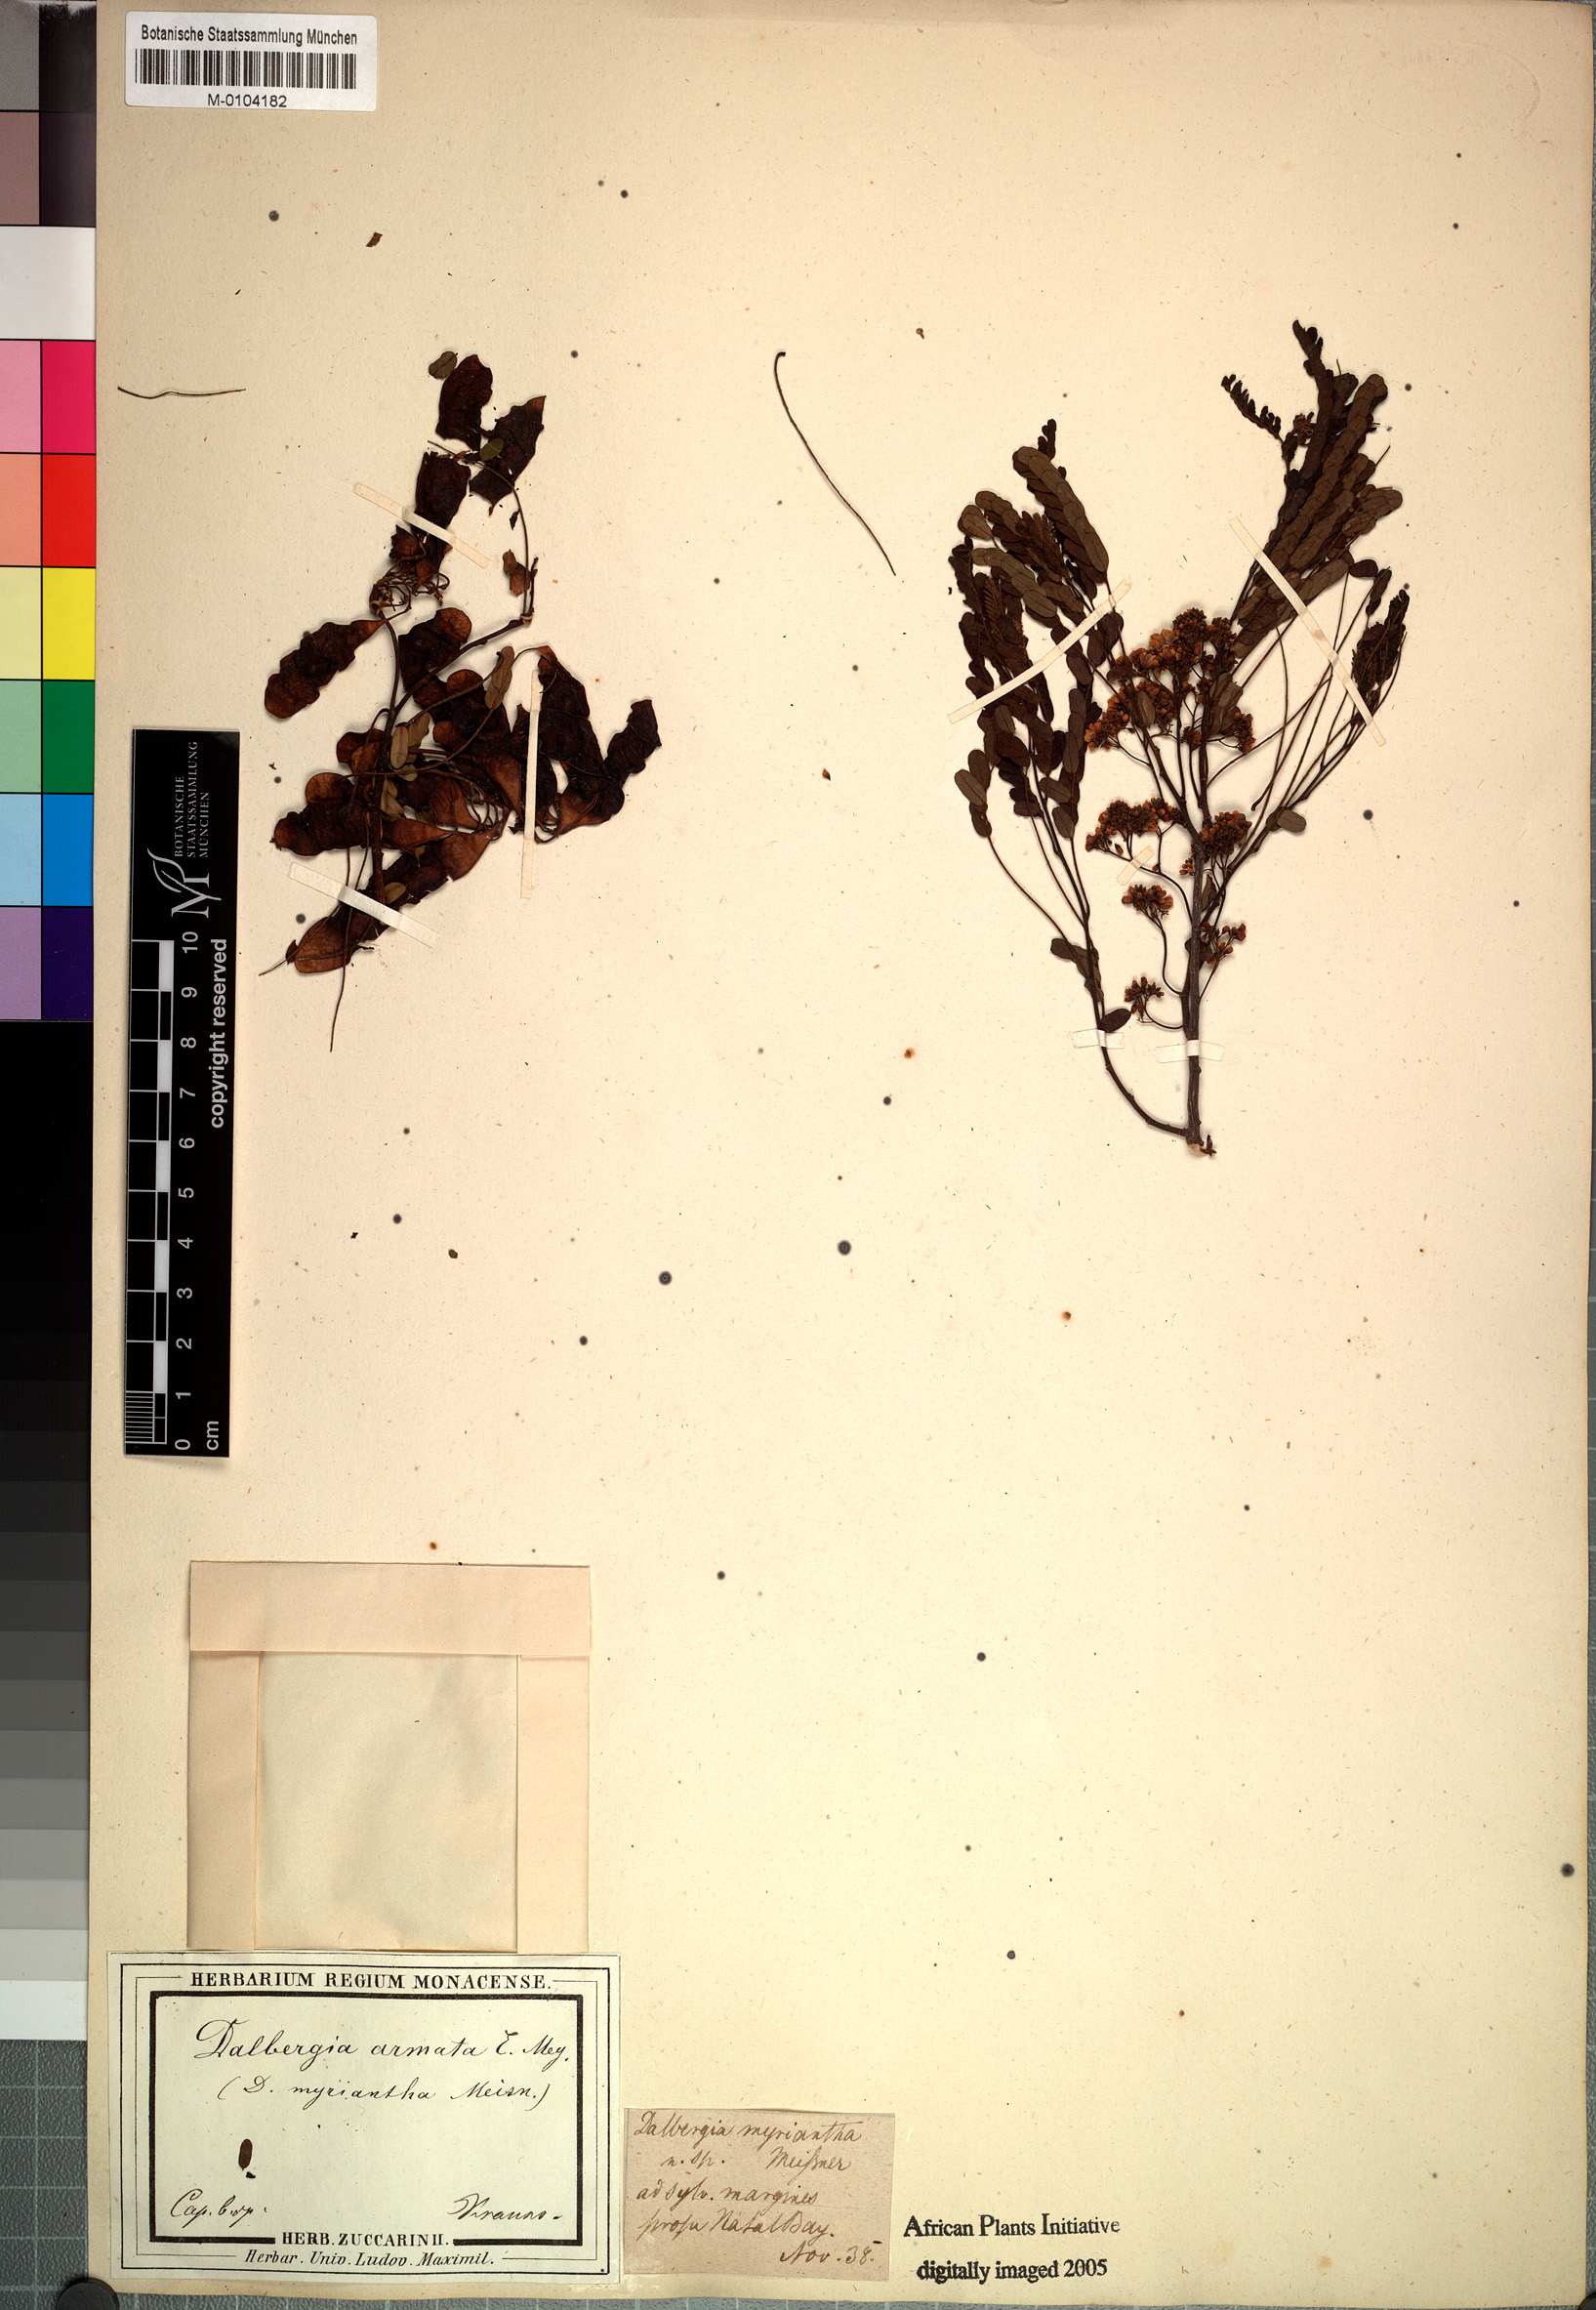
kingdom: Plantae
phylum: Tracheophyta
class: Magnoliopsida
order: Fabales
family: Fabaceae
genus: Dalbergia
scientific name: Dalbergia armata
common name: Hluhluwe climber
